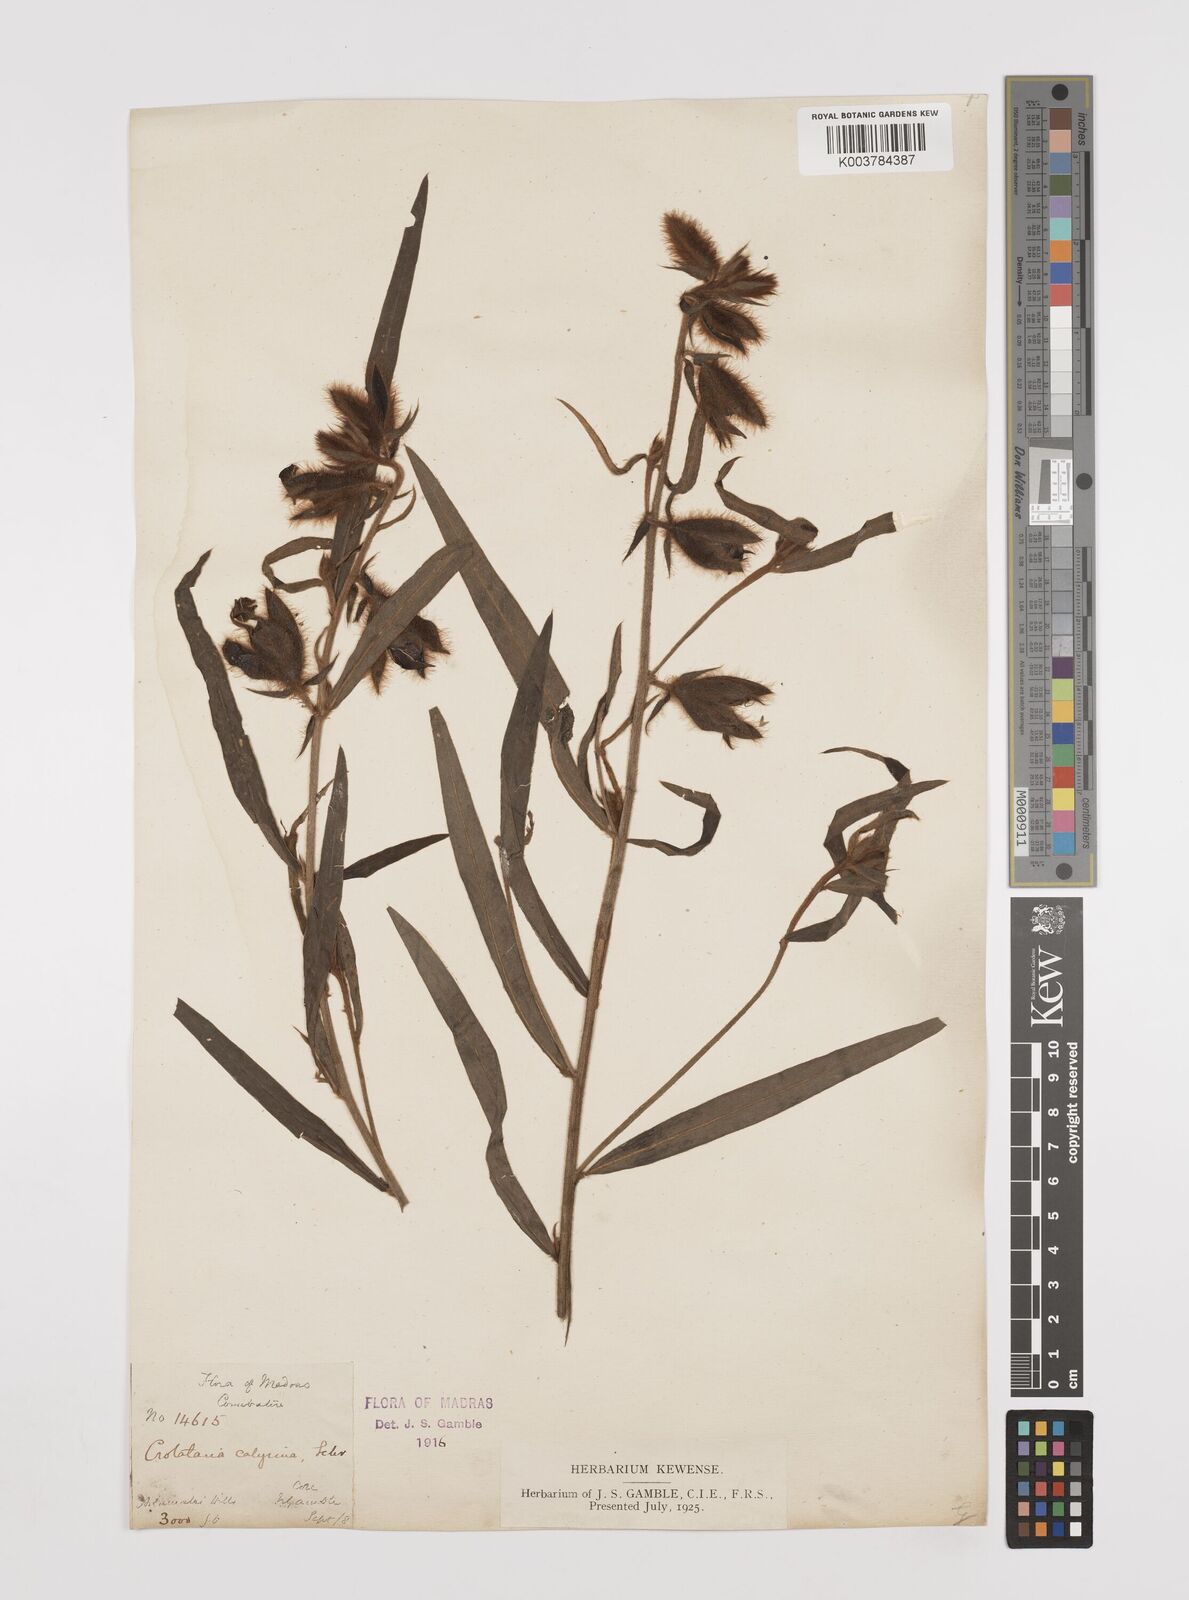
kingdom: Plantae
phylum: Tracheophyta
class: Magnoliopsida
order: Fabales
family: Fabaceae
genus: Crotalaria
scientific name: Crotalaria calycina
